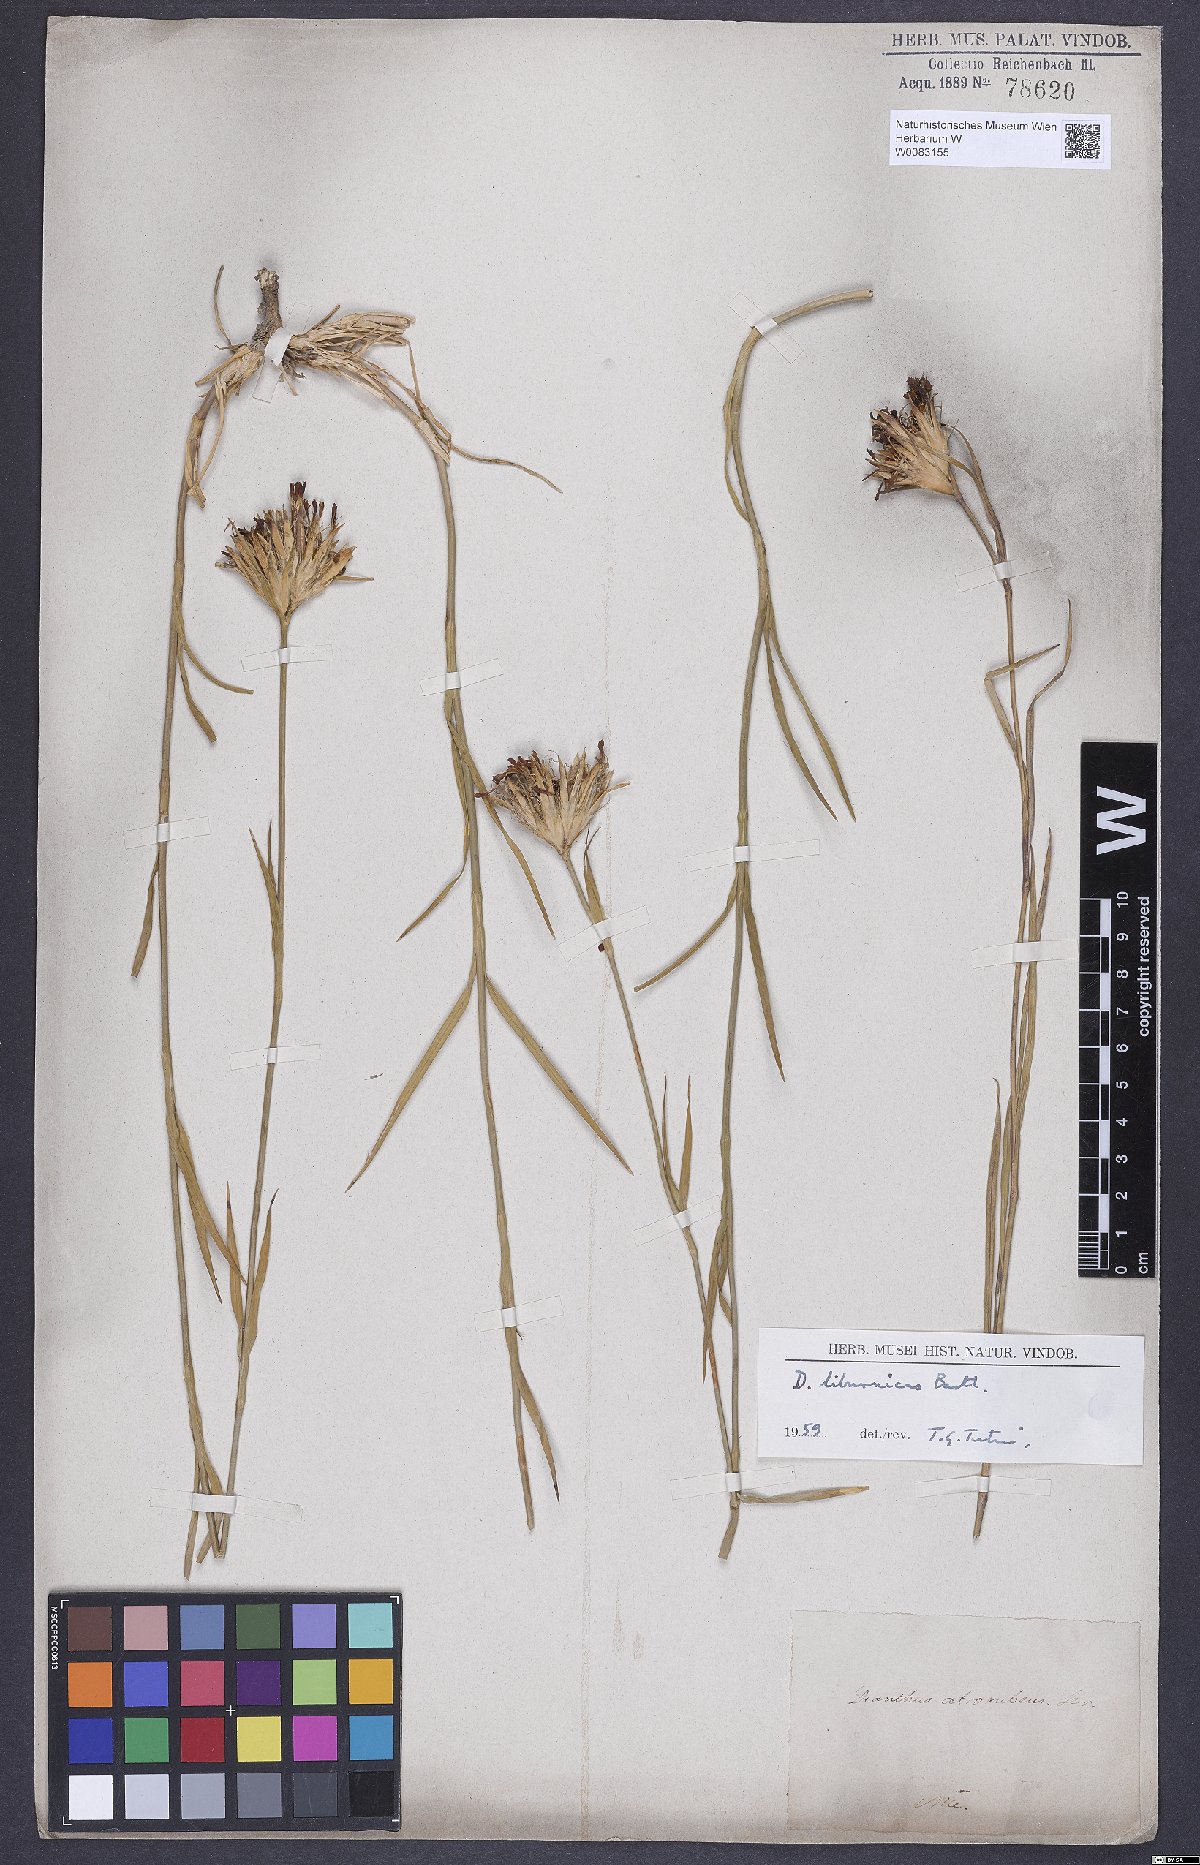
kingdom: Plantae
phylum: Tracheophyta
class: Magnoliopsida
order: Caryophyllales
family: Caryophyllaceae
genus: Dianthus
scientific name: Dianthus balbisii
